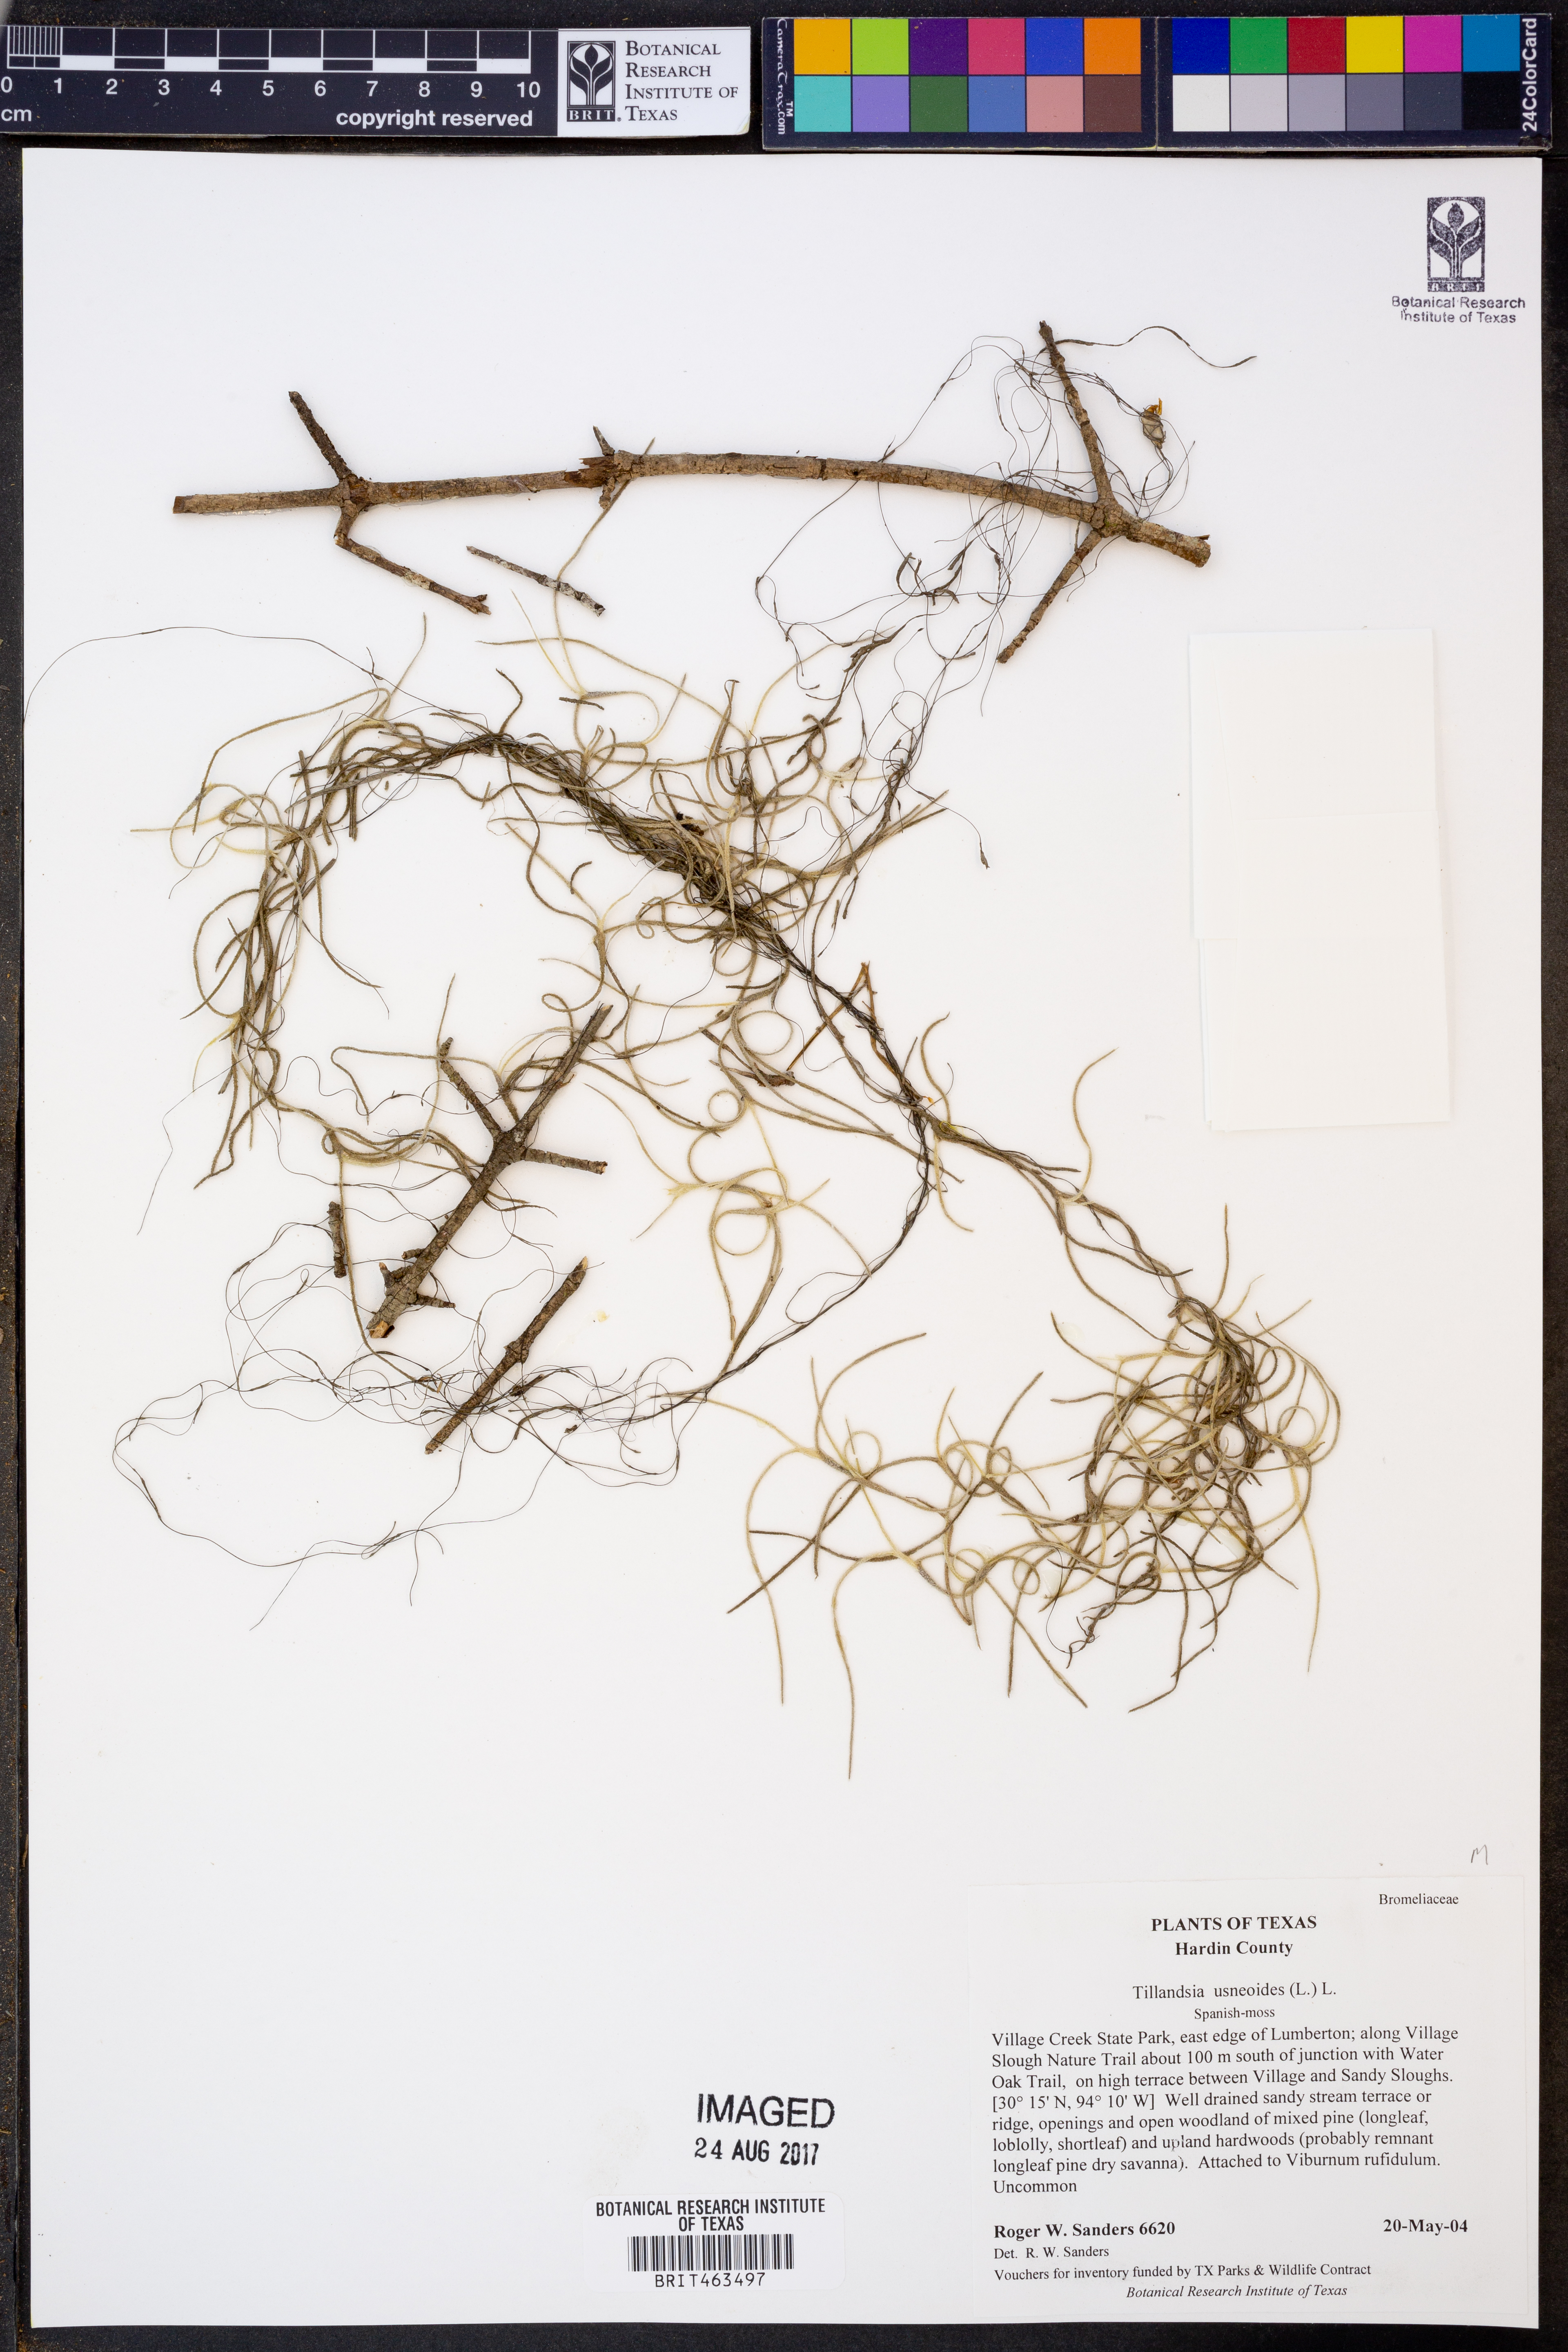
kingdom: Plantae
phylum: Tracheophyta
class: Liliopsida
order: Poales
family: Bromeliaceae
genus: Tillandsia
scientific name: Tillandsia usneoides
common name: Spanish moss
